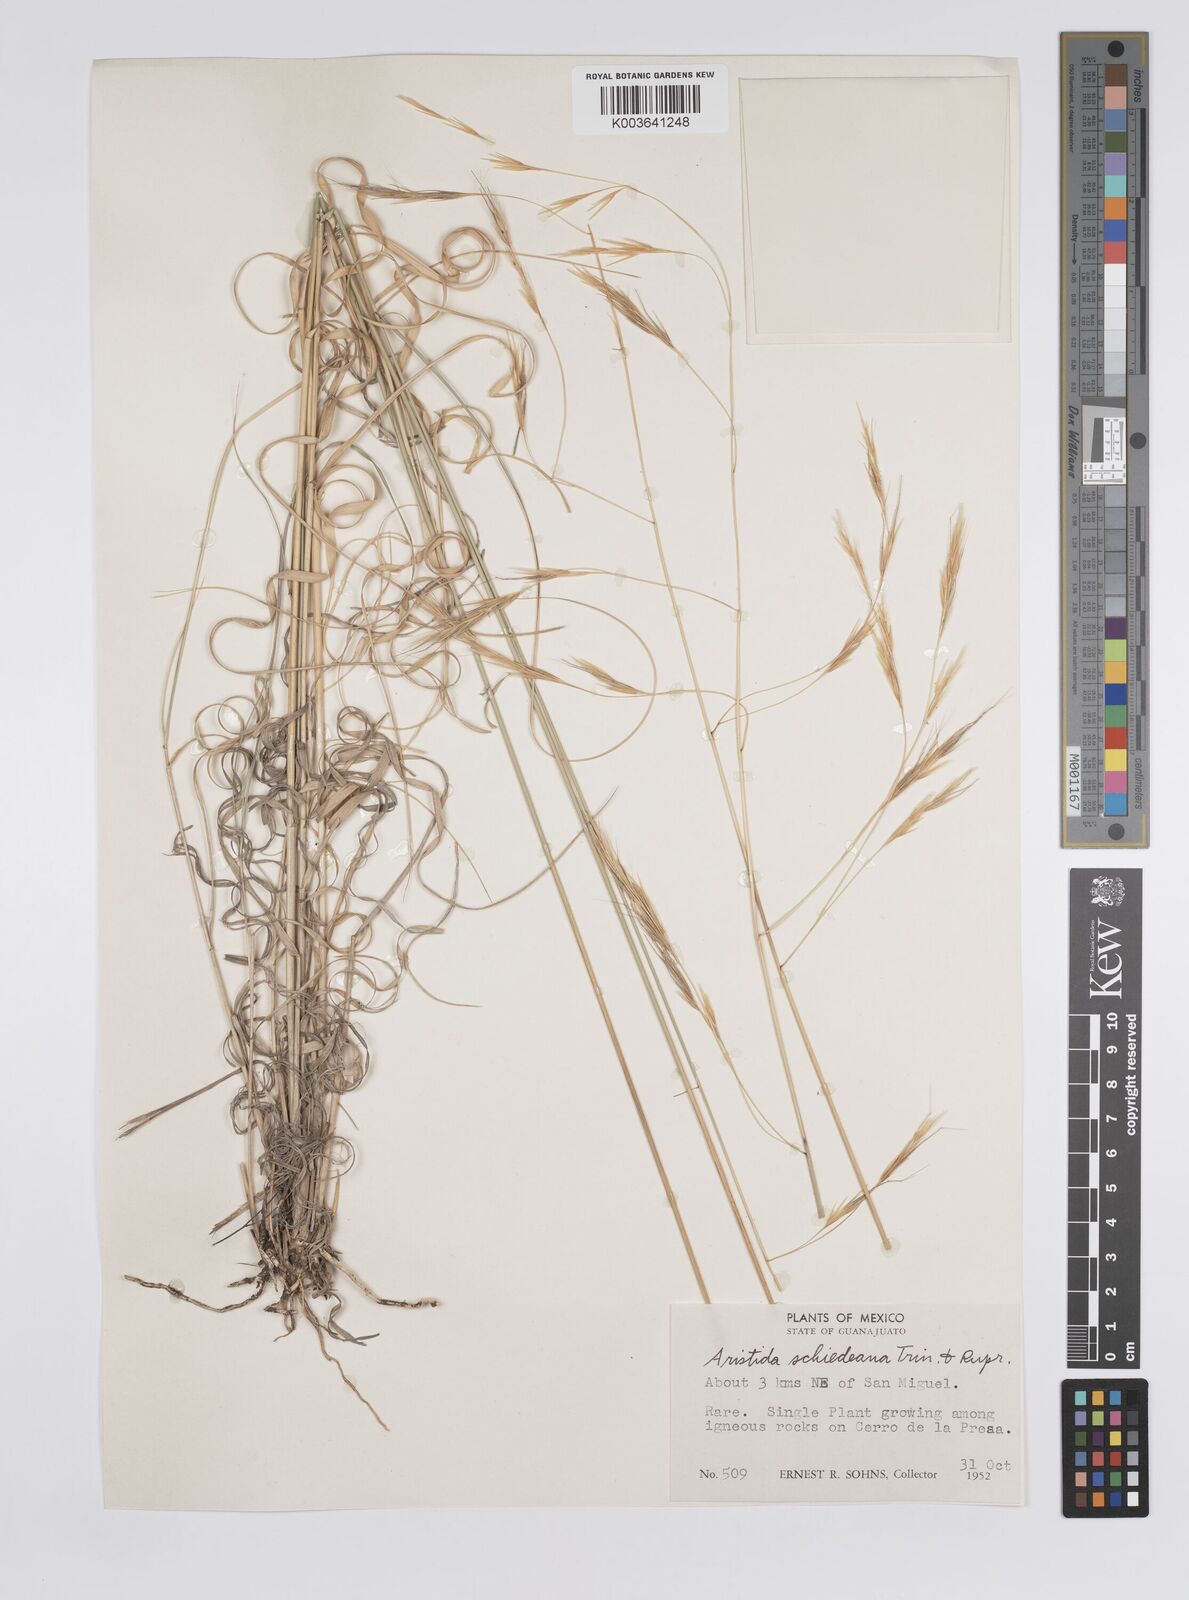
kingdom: Plantae
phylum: Tracheophyta
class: Liliopsida
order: Poales
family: Poaceae
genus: Aristida
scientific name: Aristida schiedeana
